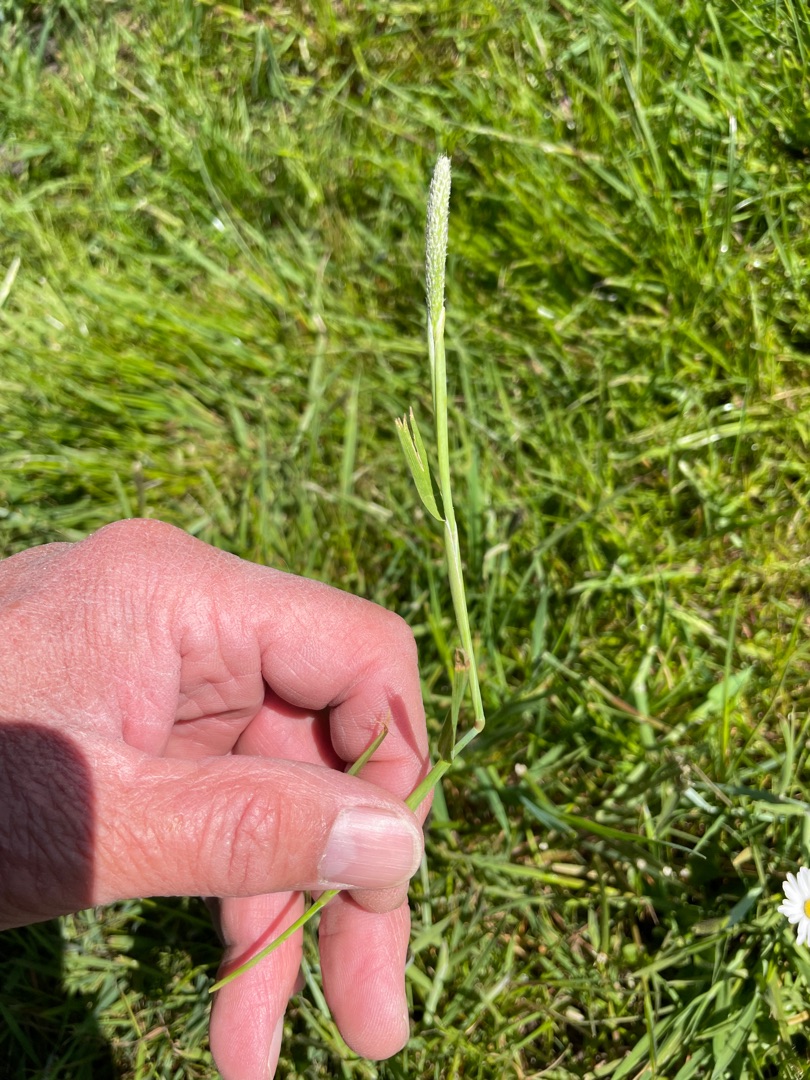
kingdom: Plantae
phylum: Tracheophyta
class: Liliopsida
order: Poales
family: Poaceae
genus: Alopecurus
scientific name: Alopecurus geniculatus
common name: Knæbøjet rævehale
